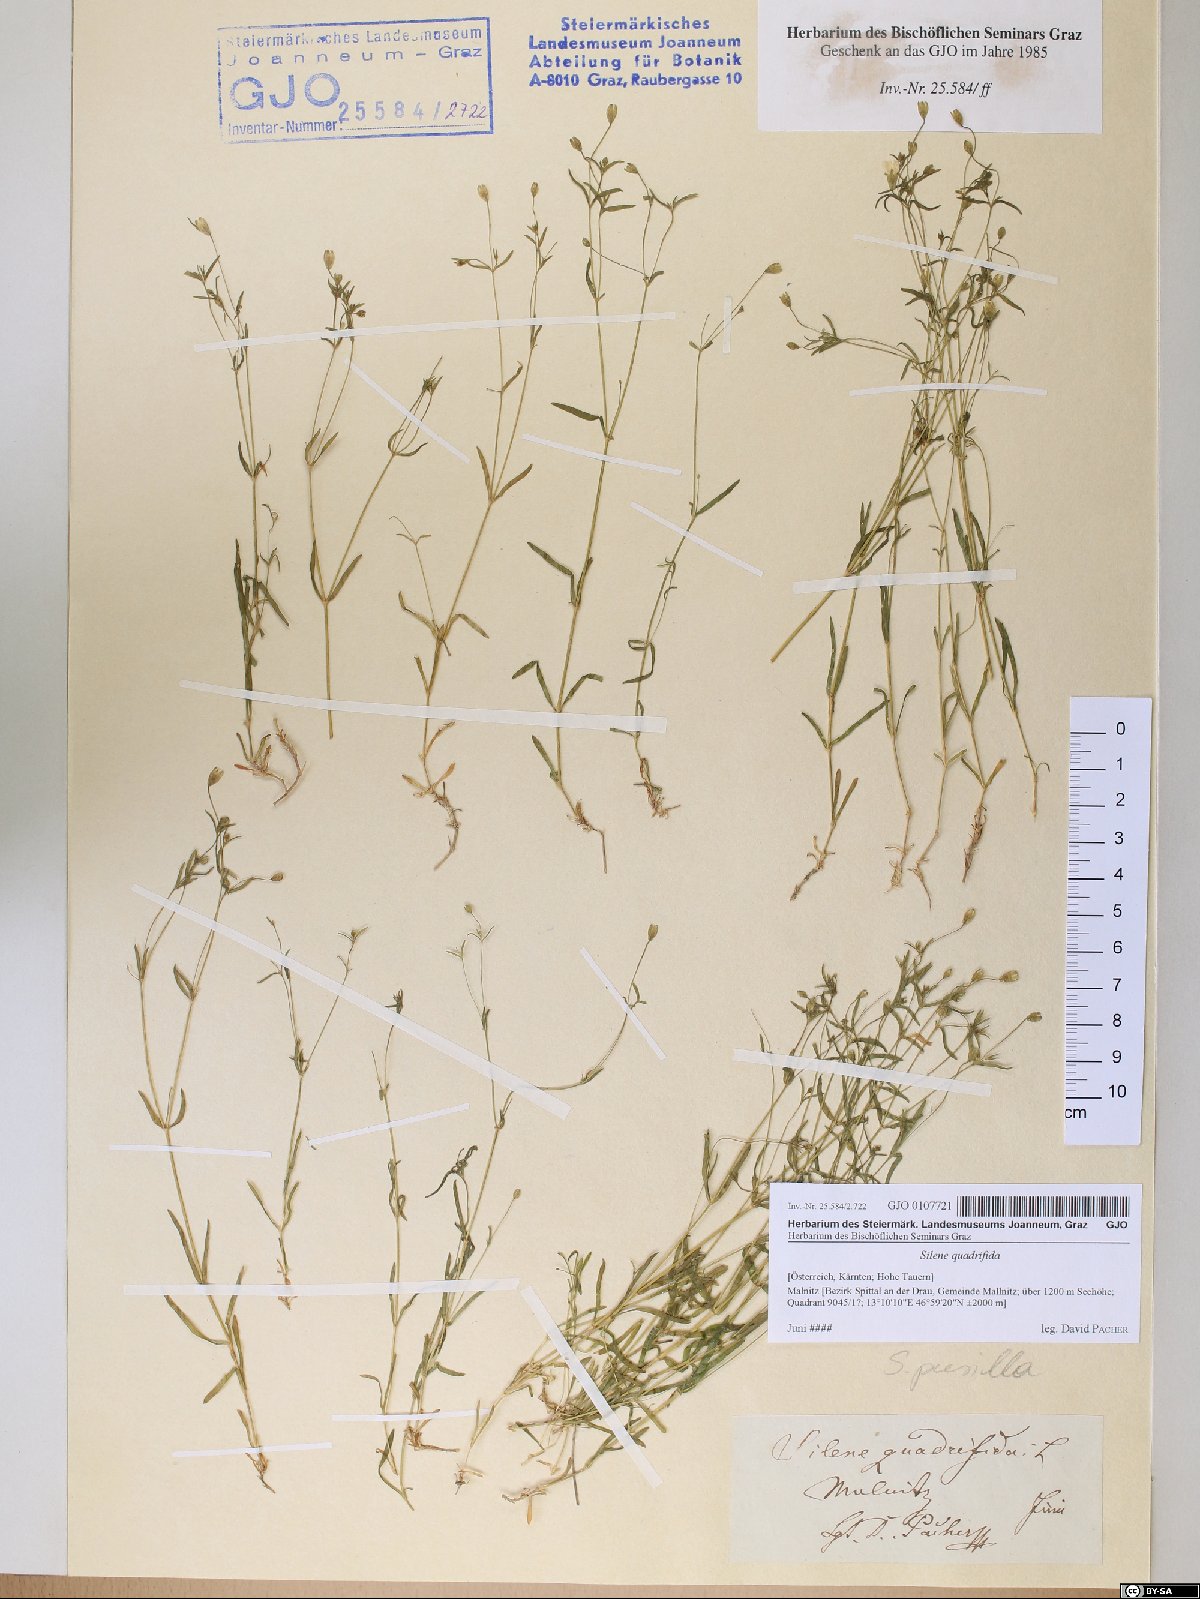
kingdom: Plantae
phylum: Tracheophyta
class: Magnoliopsida
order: Caryophyllales
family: Caryophyllaceae
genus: Heliosperma
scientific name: Heliosperma alpestre
